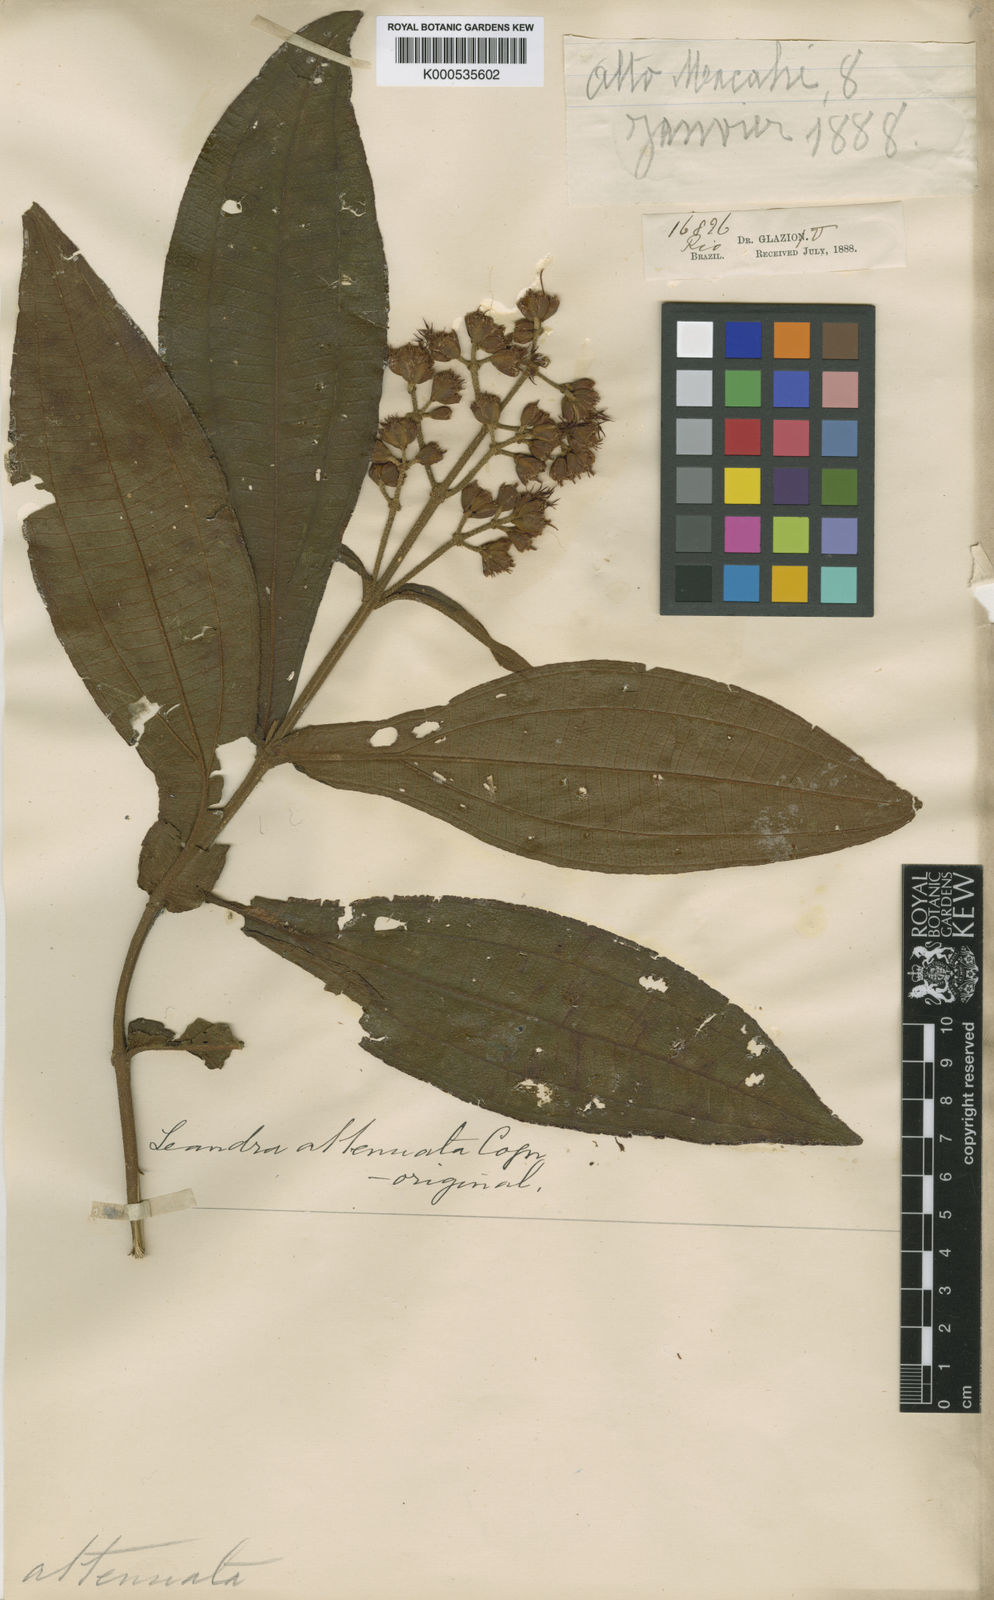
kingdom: Plantae
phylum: Tracheophyta
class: Magnoliopsida
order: Myrtales
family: Melastomataceae
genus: Miconia
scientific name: Miconia pectinata
